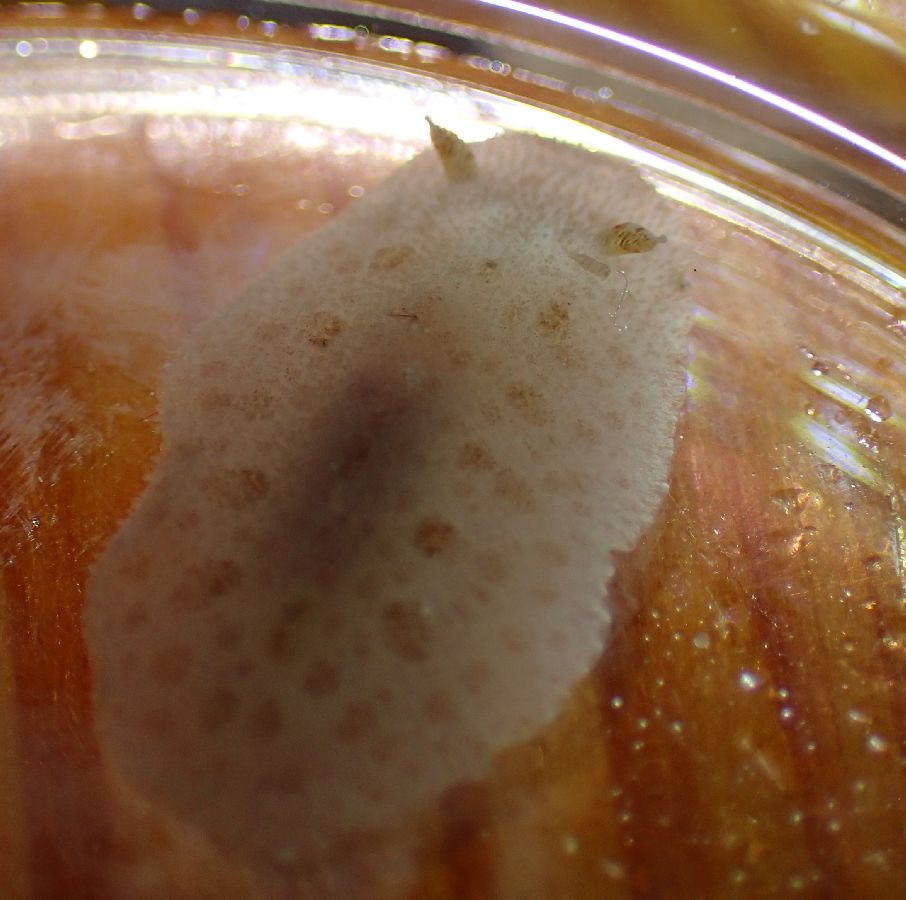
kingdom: Animalia
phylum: Mollusca
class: Gastropoda
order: Nudibranchia
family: Discodorididae
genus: Jorunna
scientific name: Jorunna tomentosa
